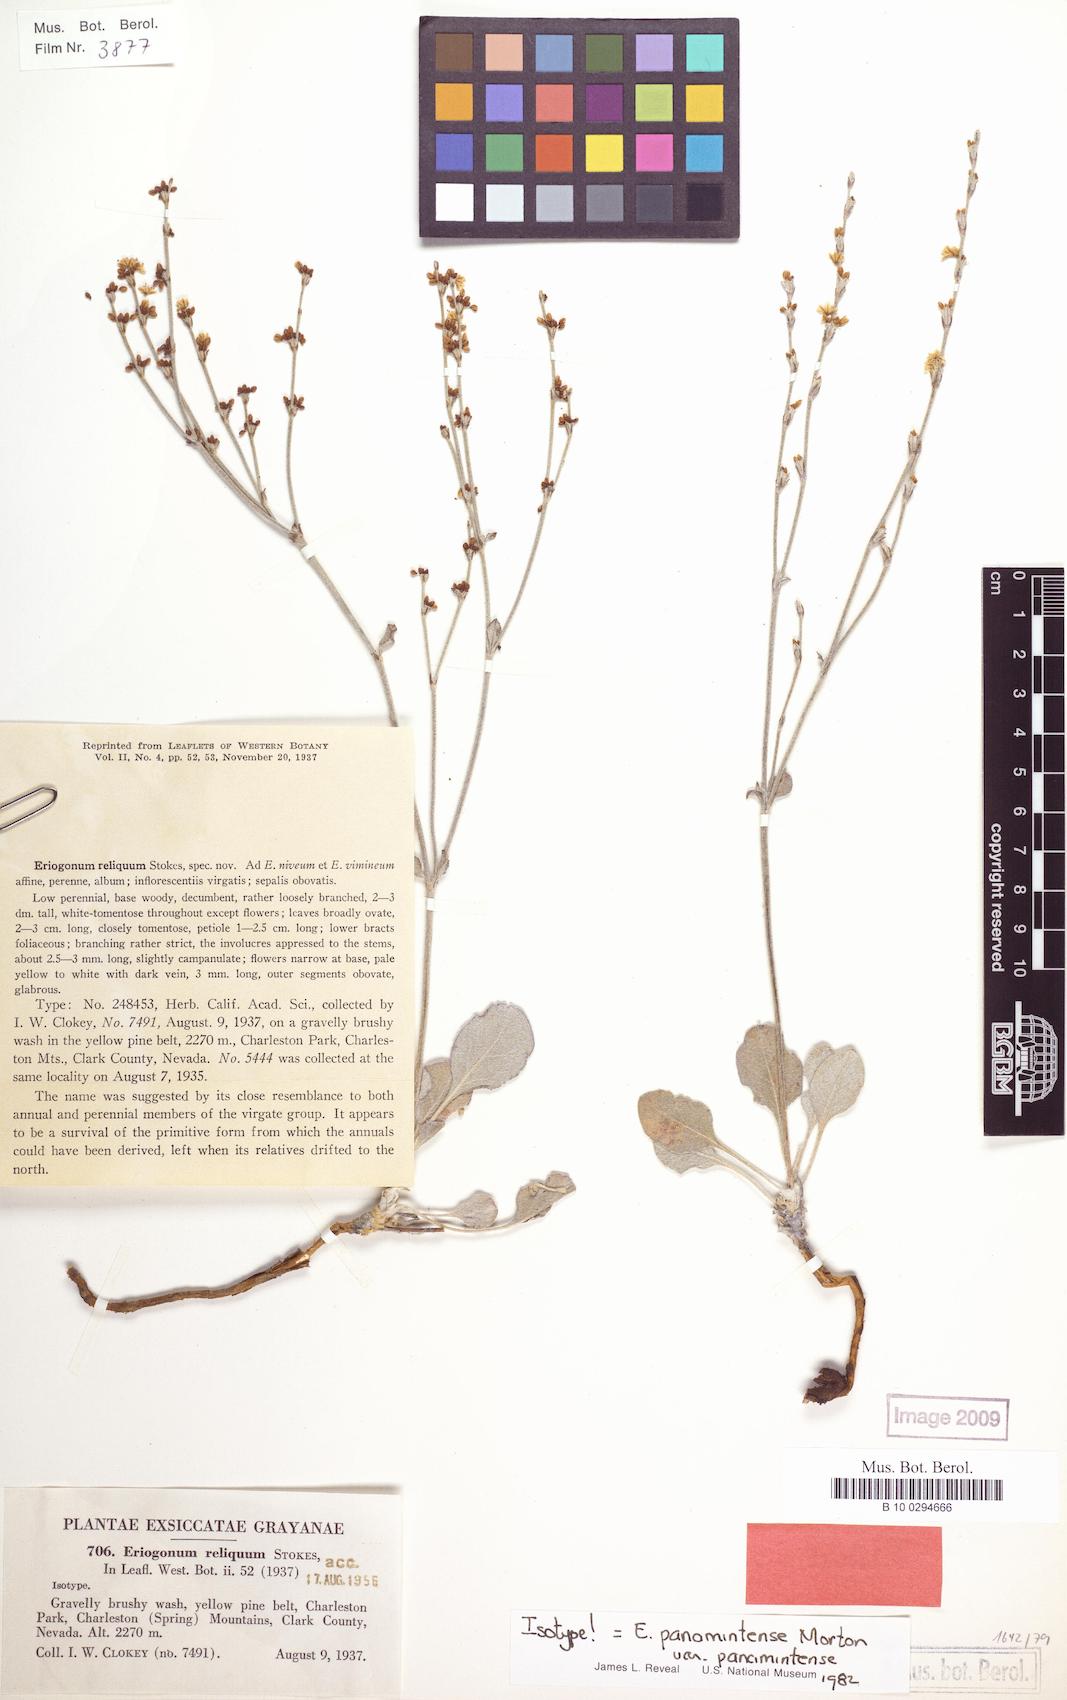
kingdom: Plantae
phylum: Tracheophyta
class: Magnoliopsida
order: Caryophyllales
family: Polygonaceae
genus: Eriogonum
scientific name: Eriogonum panamintense
